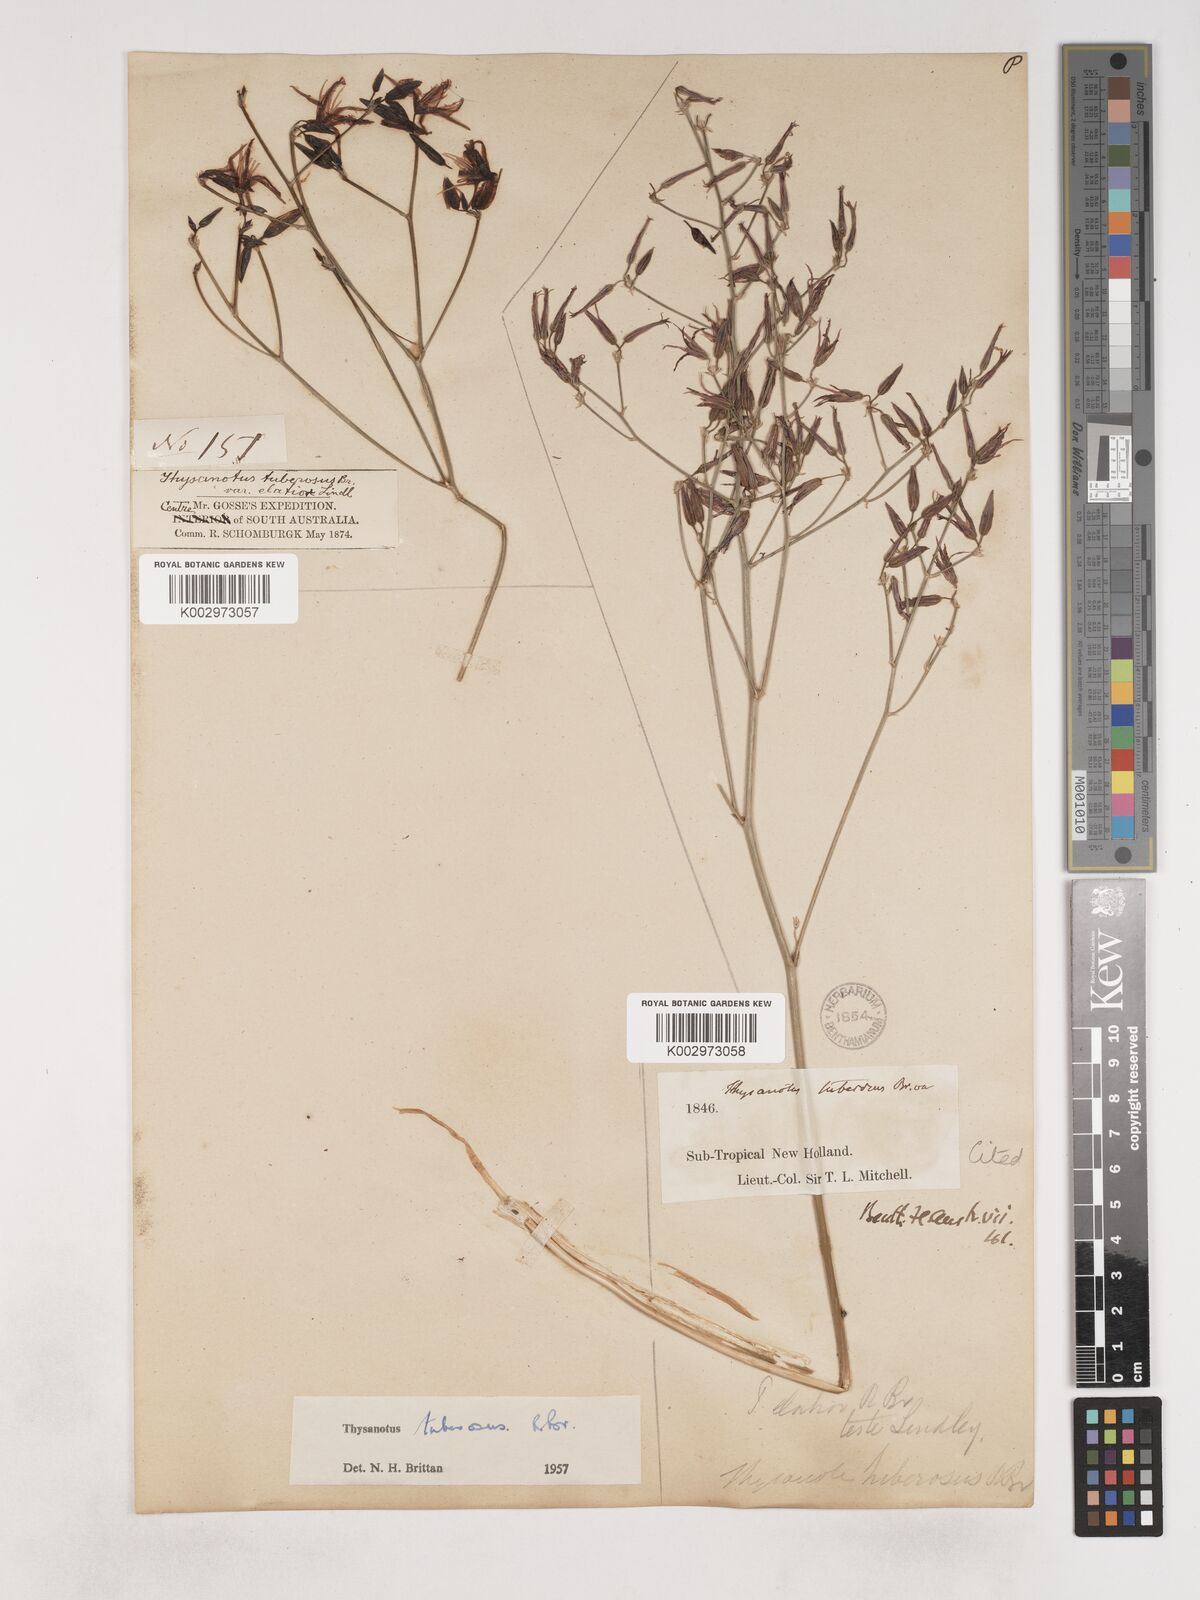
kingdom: Plantae
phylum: Tracheophyta
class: Liliopsida
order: Asparagales
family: Asparagaceae
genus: Thysanotus
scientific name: Thysanotus banksii
